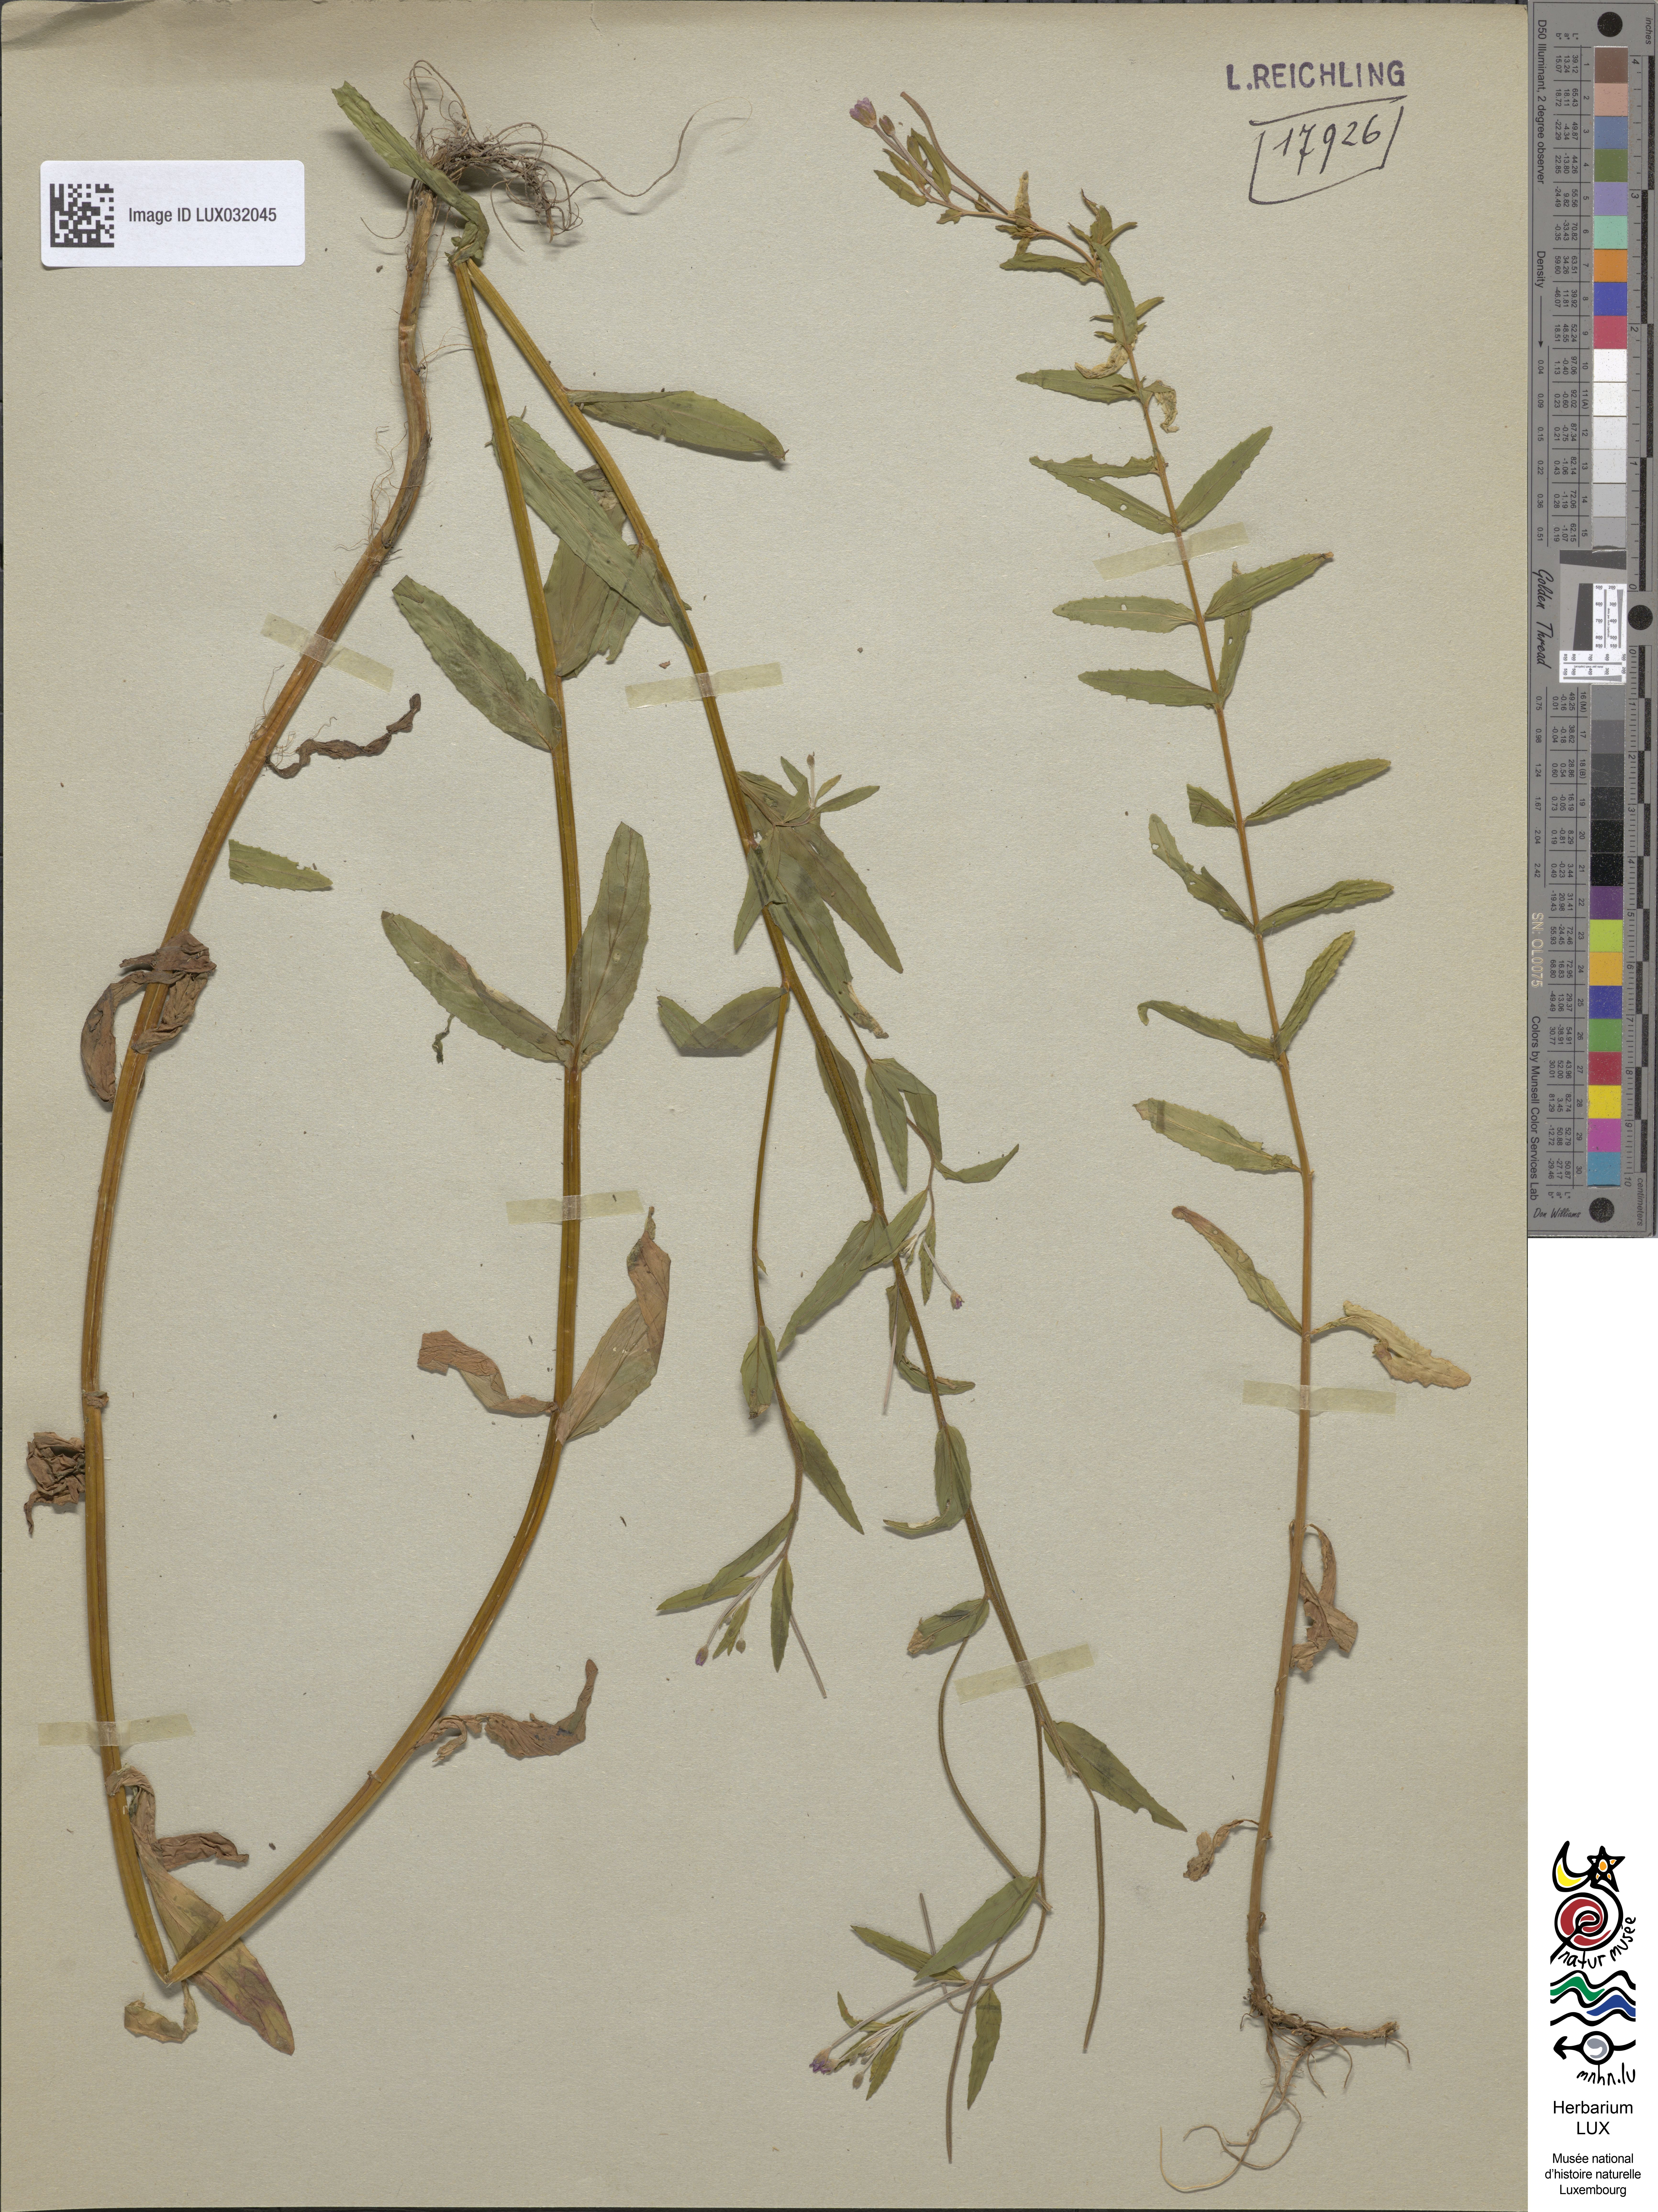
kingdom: Plantae
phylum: Tracheophyta
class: Magnoliopsida
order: Myrtales
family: Onagraceae
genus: Epilobium
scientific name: Epilobium lamyi
